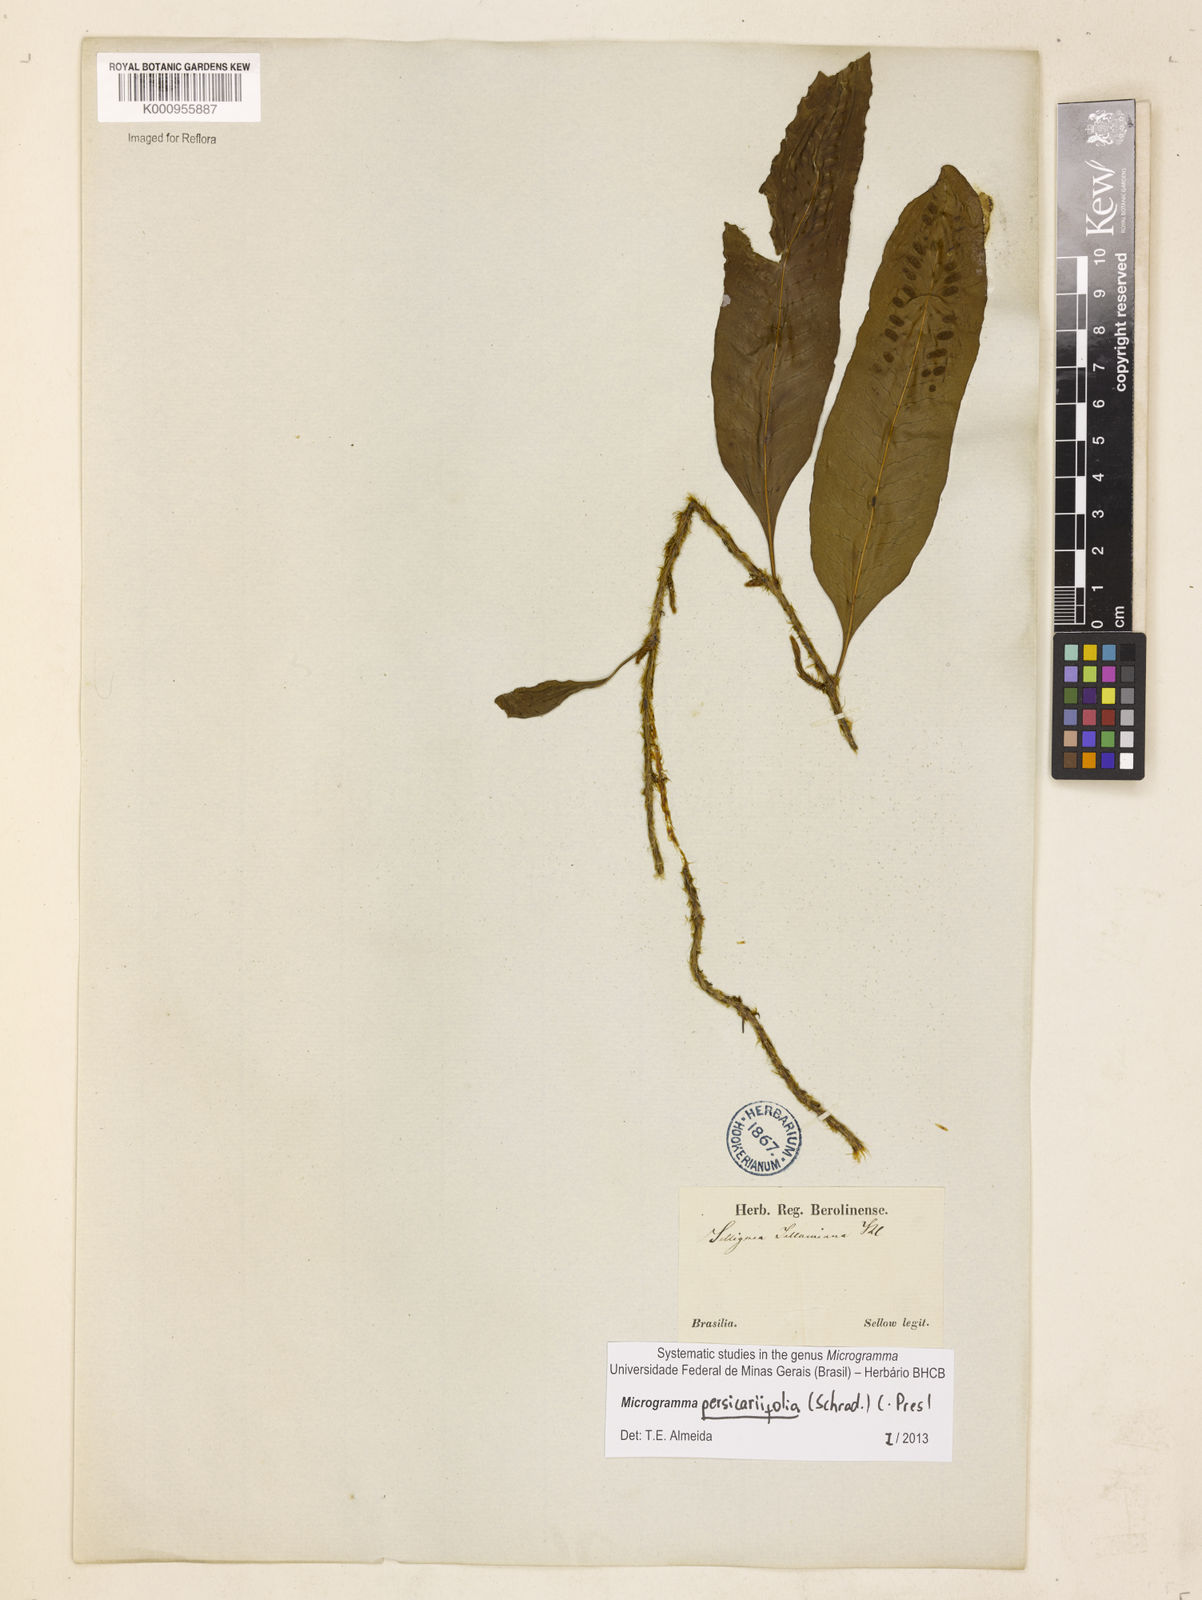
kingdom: Plantae
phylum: Tracheophyta
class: Polypodiopsida
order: Polypodiales
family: Polypodiaceae
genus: Microgramma
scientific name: Microgramma persicariifolia
